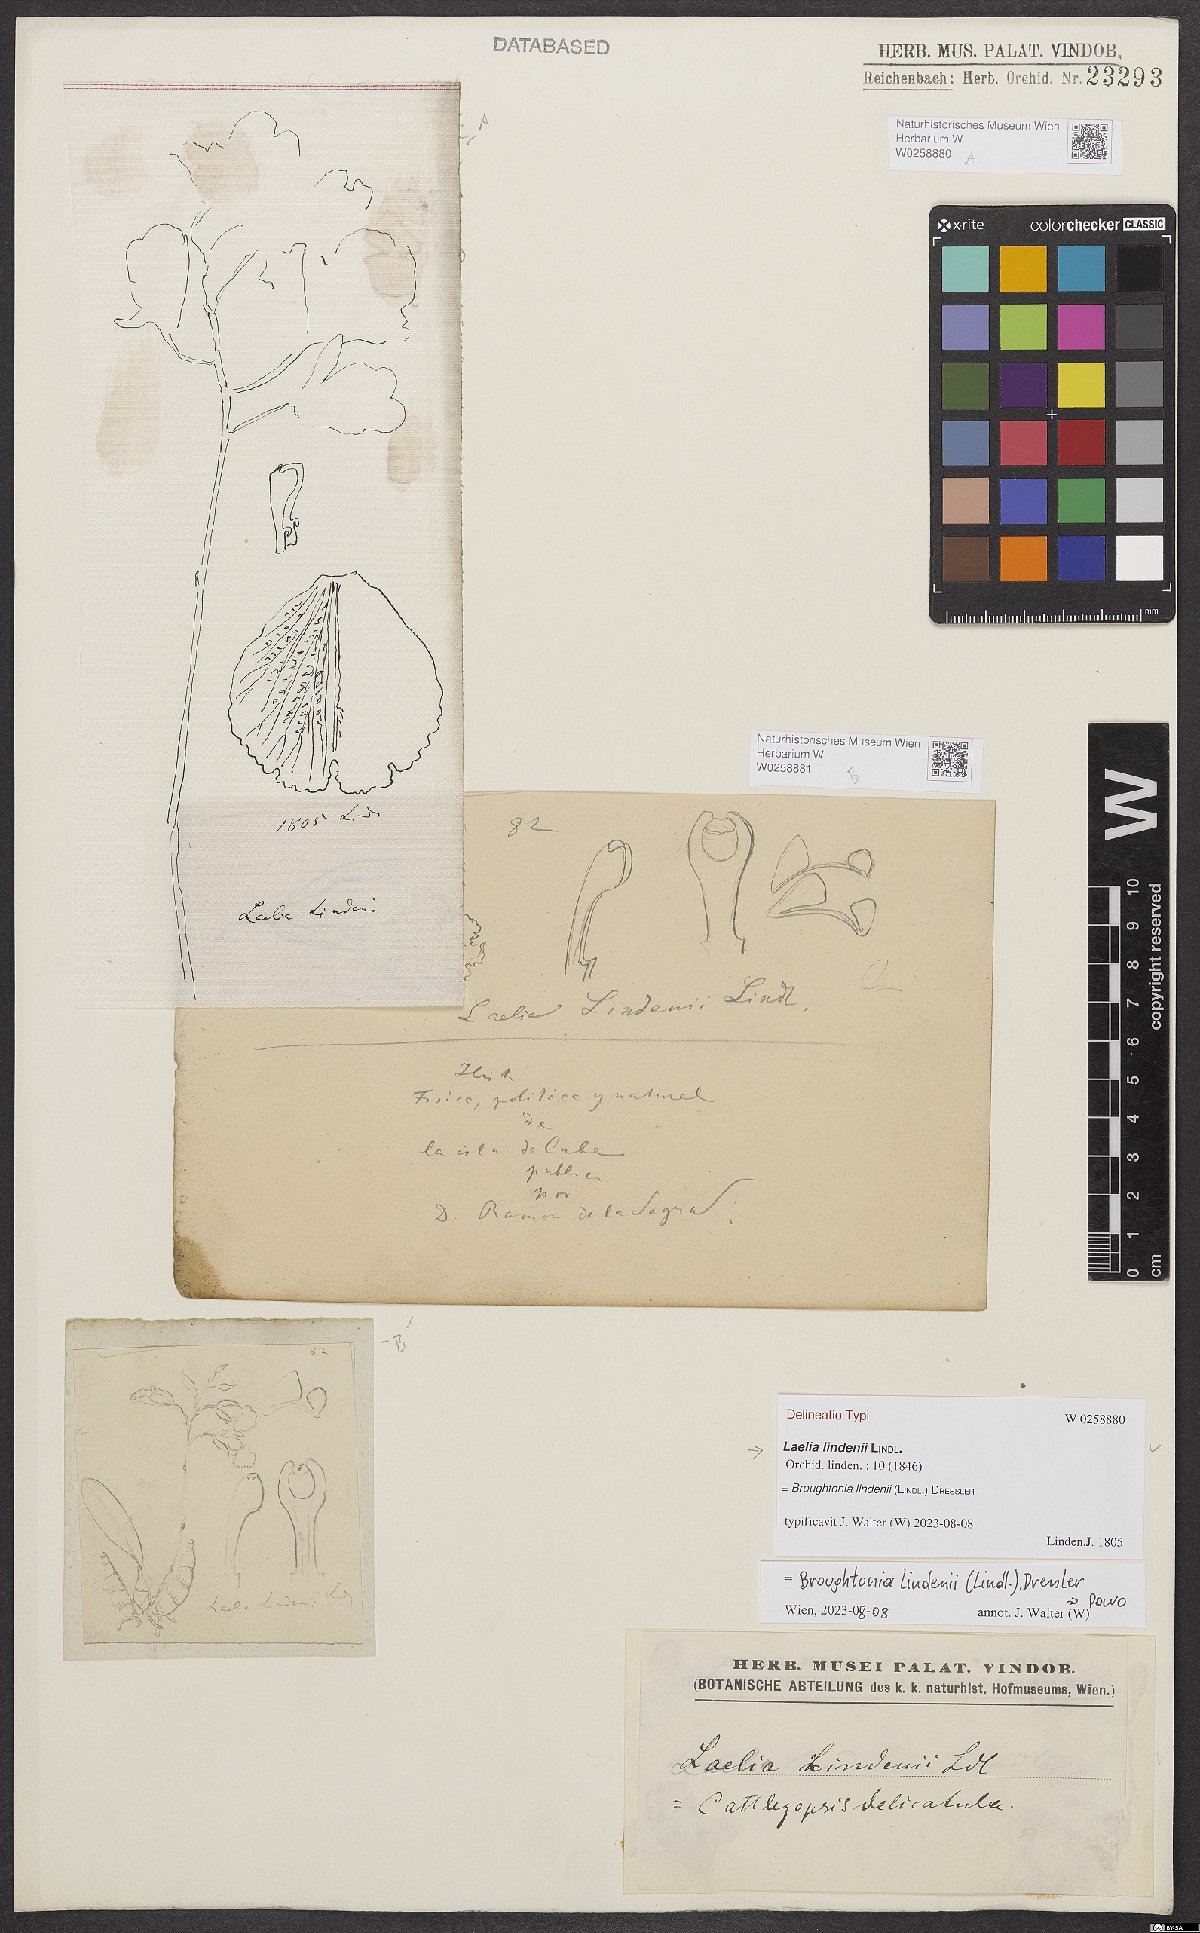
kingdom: Plantae
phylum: Tracheophyta
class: Liliopsida
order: Asparagales
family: Orchidaceae
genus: Broughtonia
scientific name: Broughtonia lindenii
